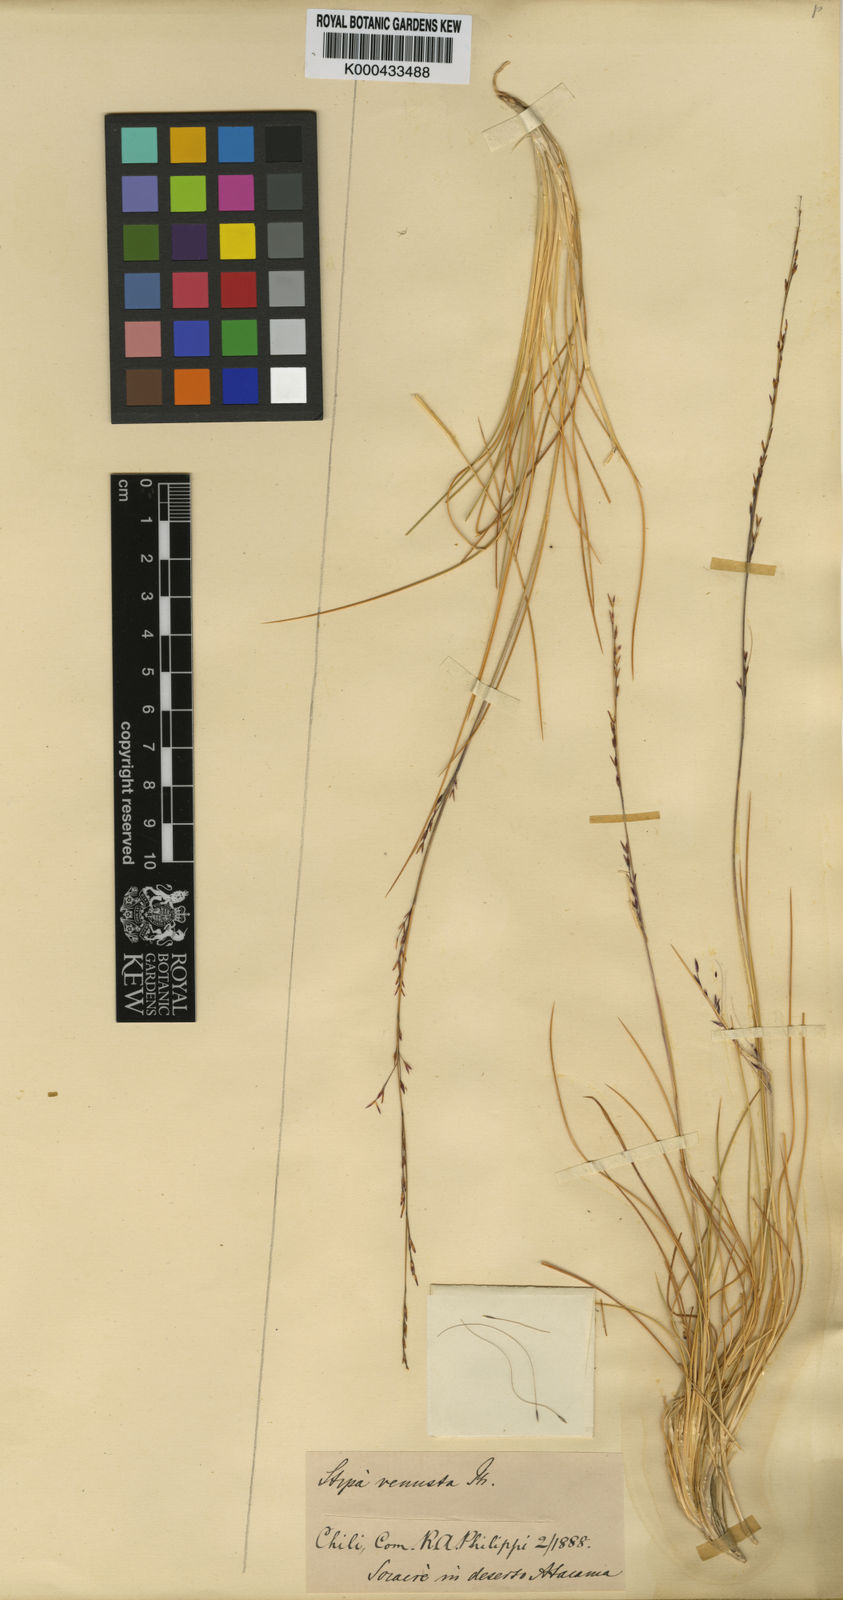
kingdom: Plantae
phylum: Tracheophyta
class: Liliopsida
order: Poales
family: Poaceae
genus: Stipa
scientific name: Stipa venusta
